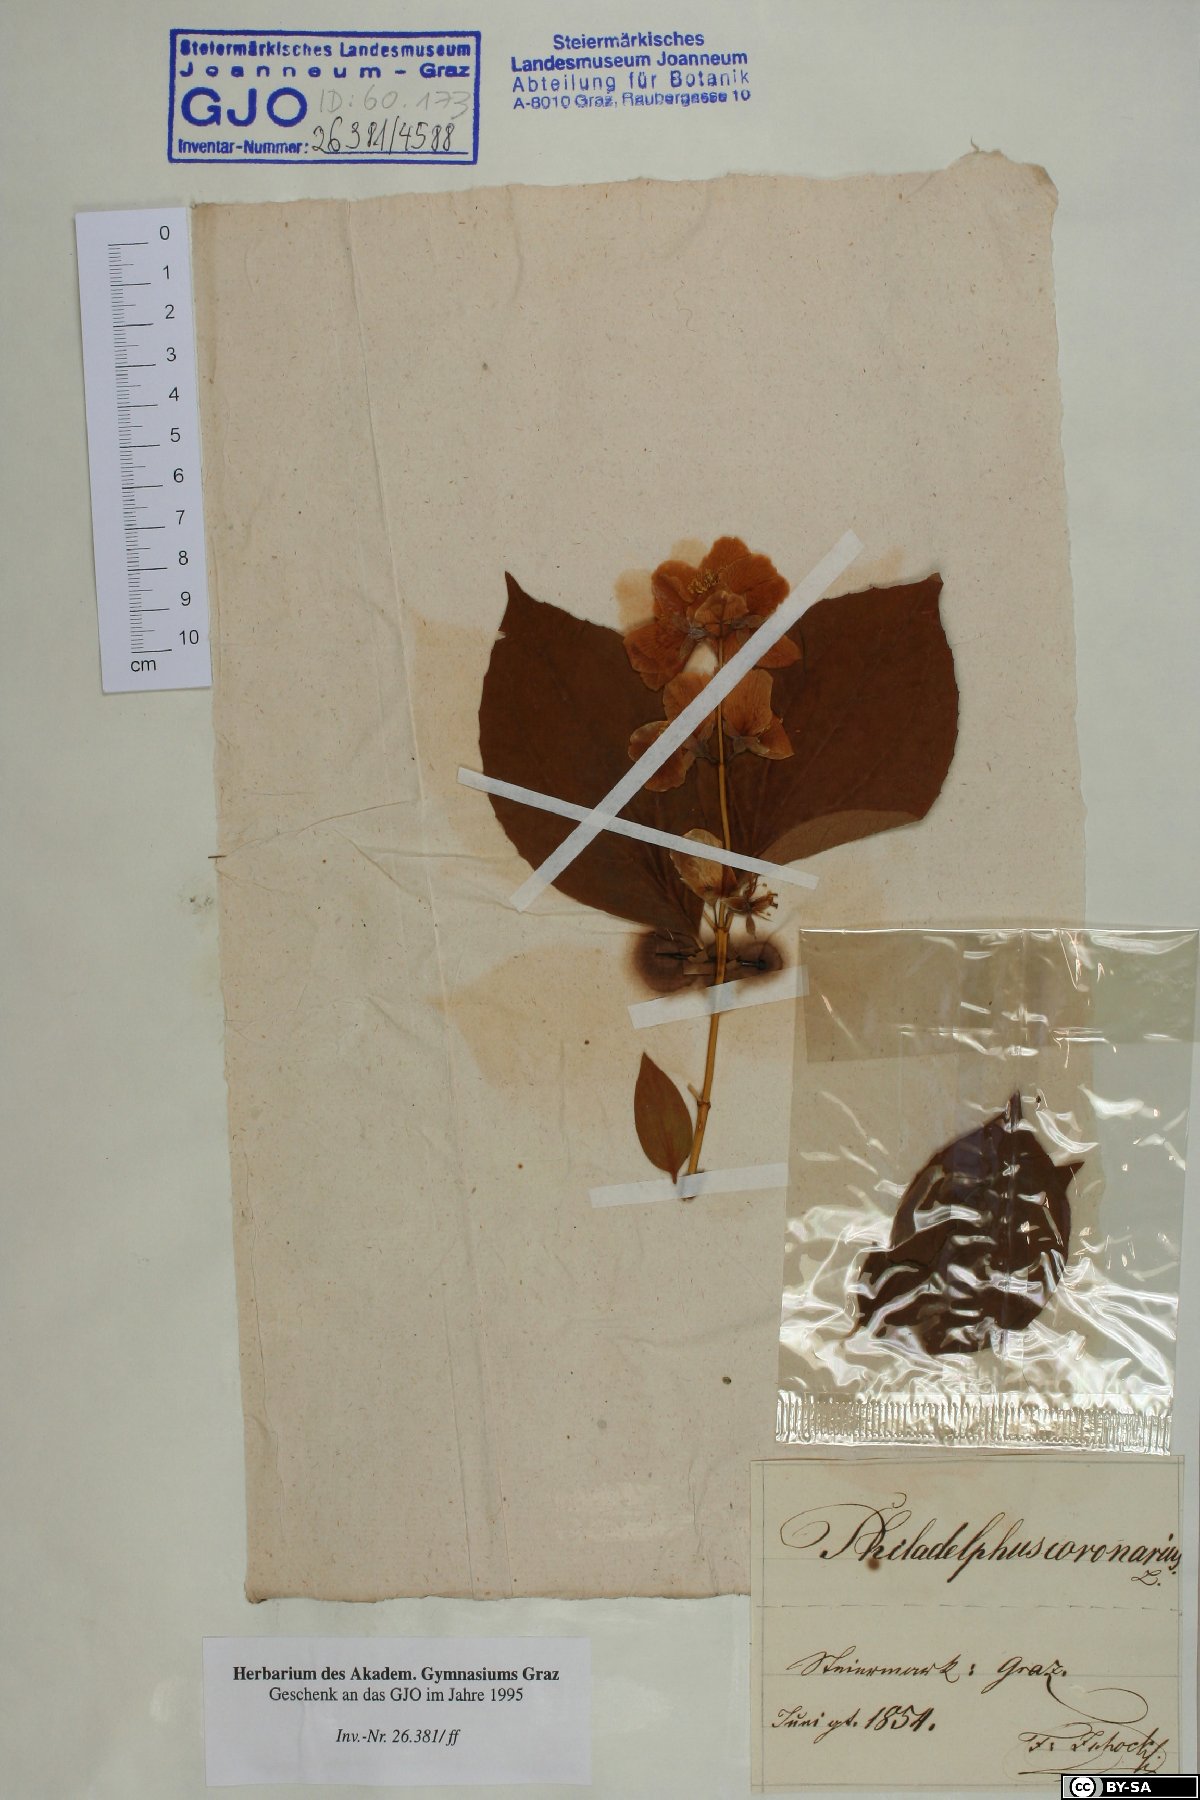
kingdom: Plantae
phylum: Tracheophyta
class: Magnoliopsida
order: Cornales
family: Hydrangeaceae
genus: Philadelphus
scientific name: Philadelphus coronarius
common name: Mock orange
